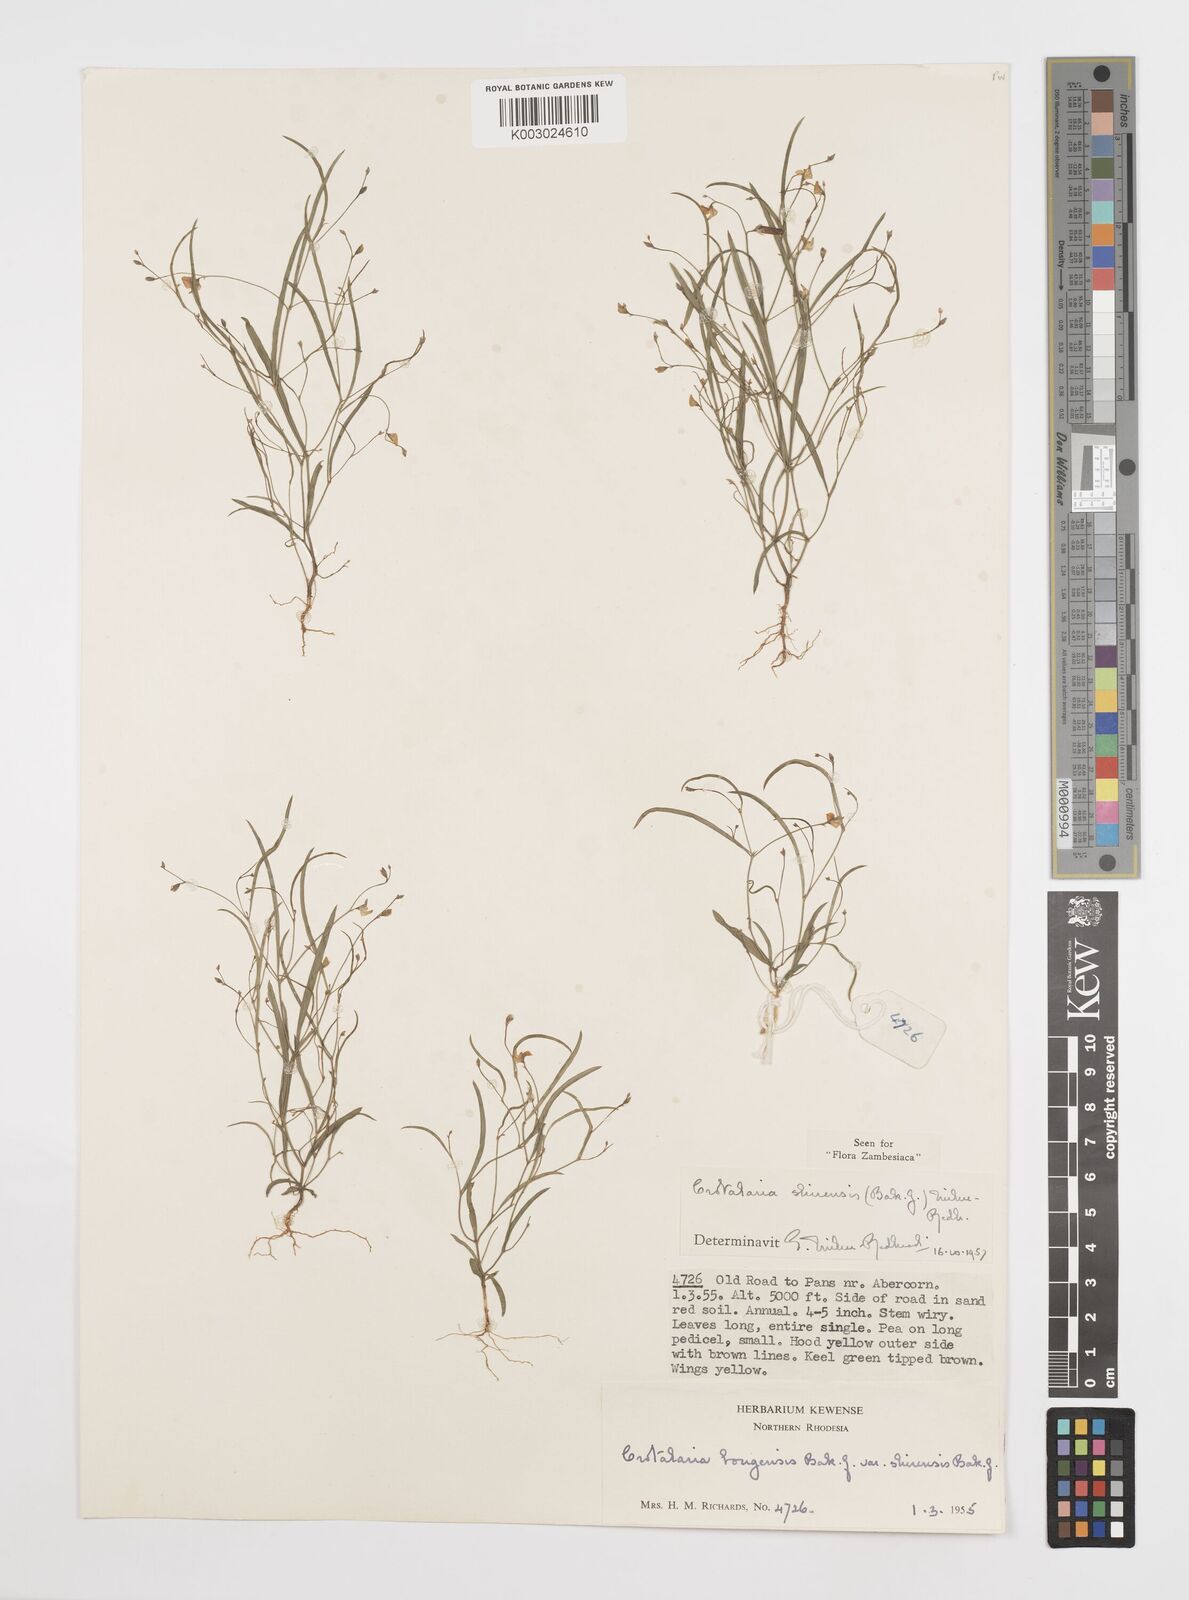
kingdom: Plantae
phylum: Tracheophyta
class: Magnoliopsida
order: Fabales
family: Fabaceae
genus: Crotalaria
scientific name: Crotalaria shirensis
